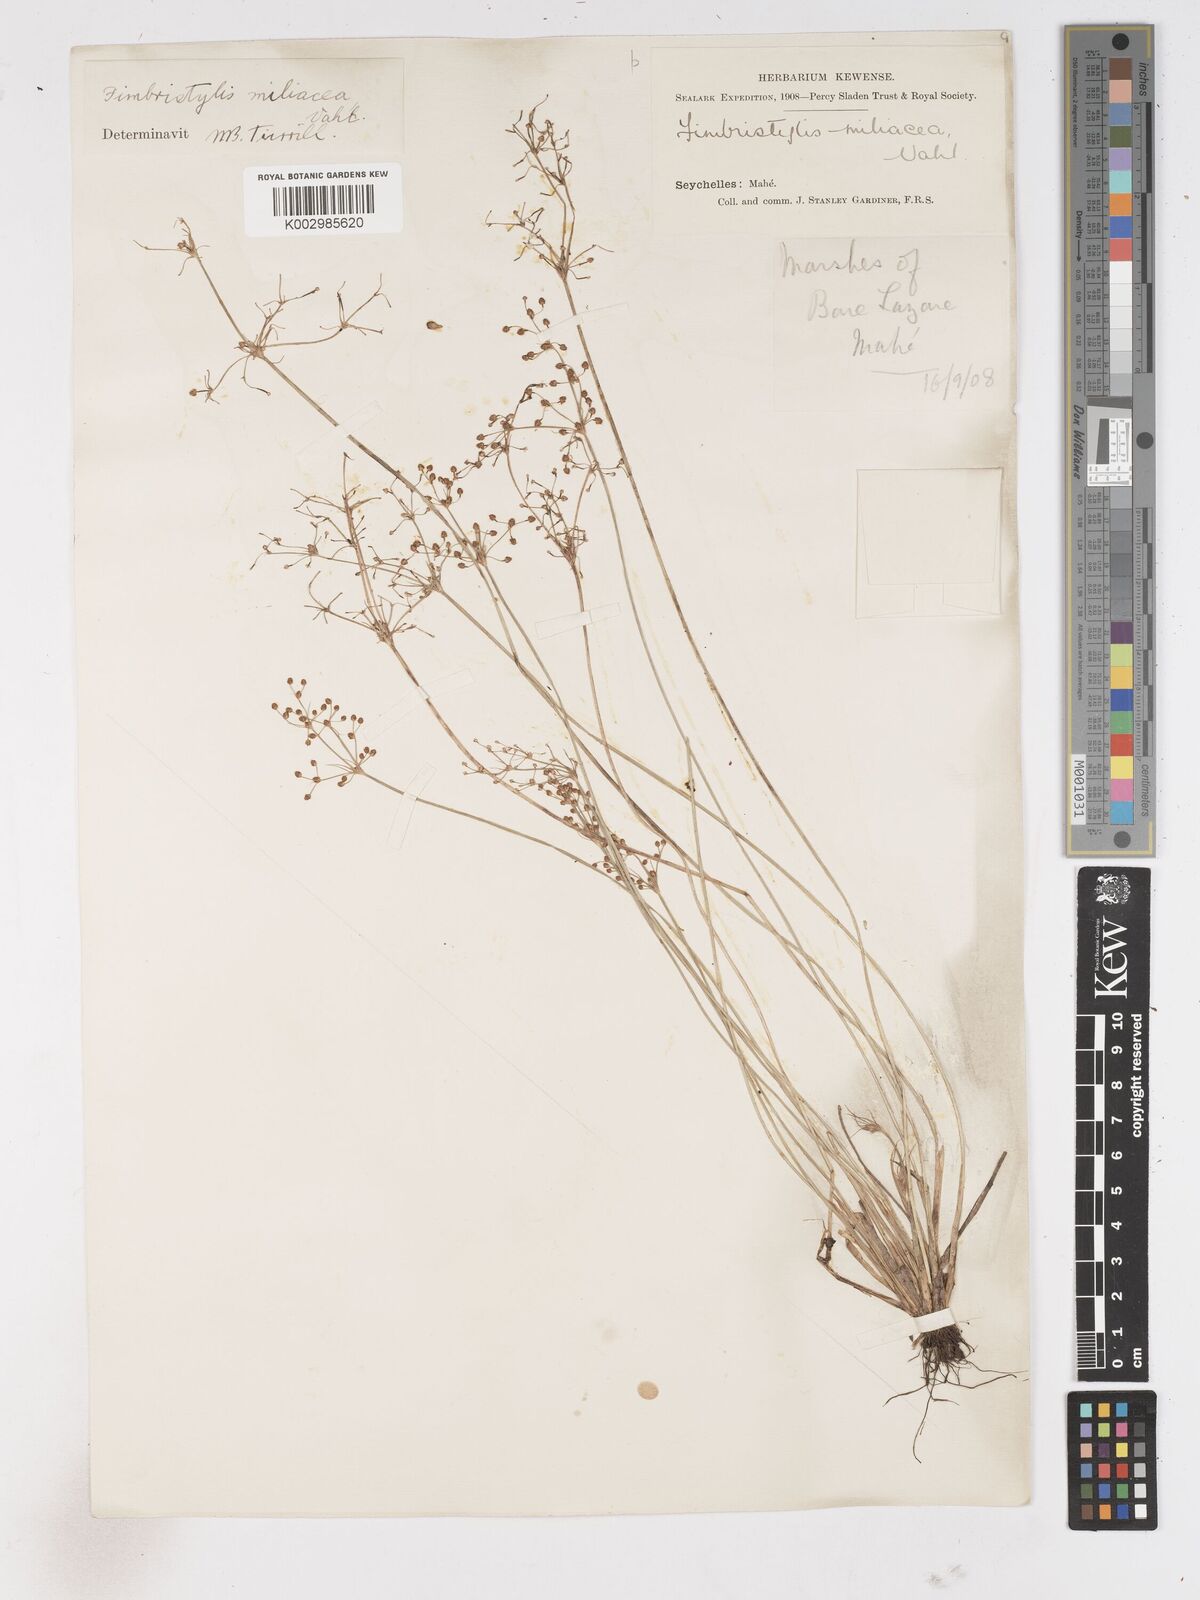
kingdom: Plantae
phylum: Tracheophyta
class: Liliopsida
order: Poales
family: Cyperaceae
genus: Fimbristylis
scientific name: Fimbristylis littoralis
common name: Fimbry
